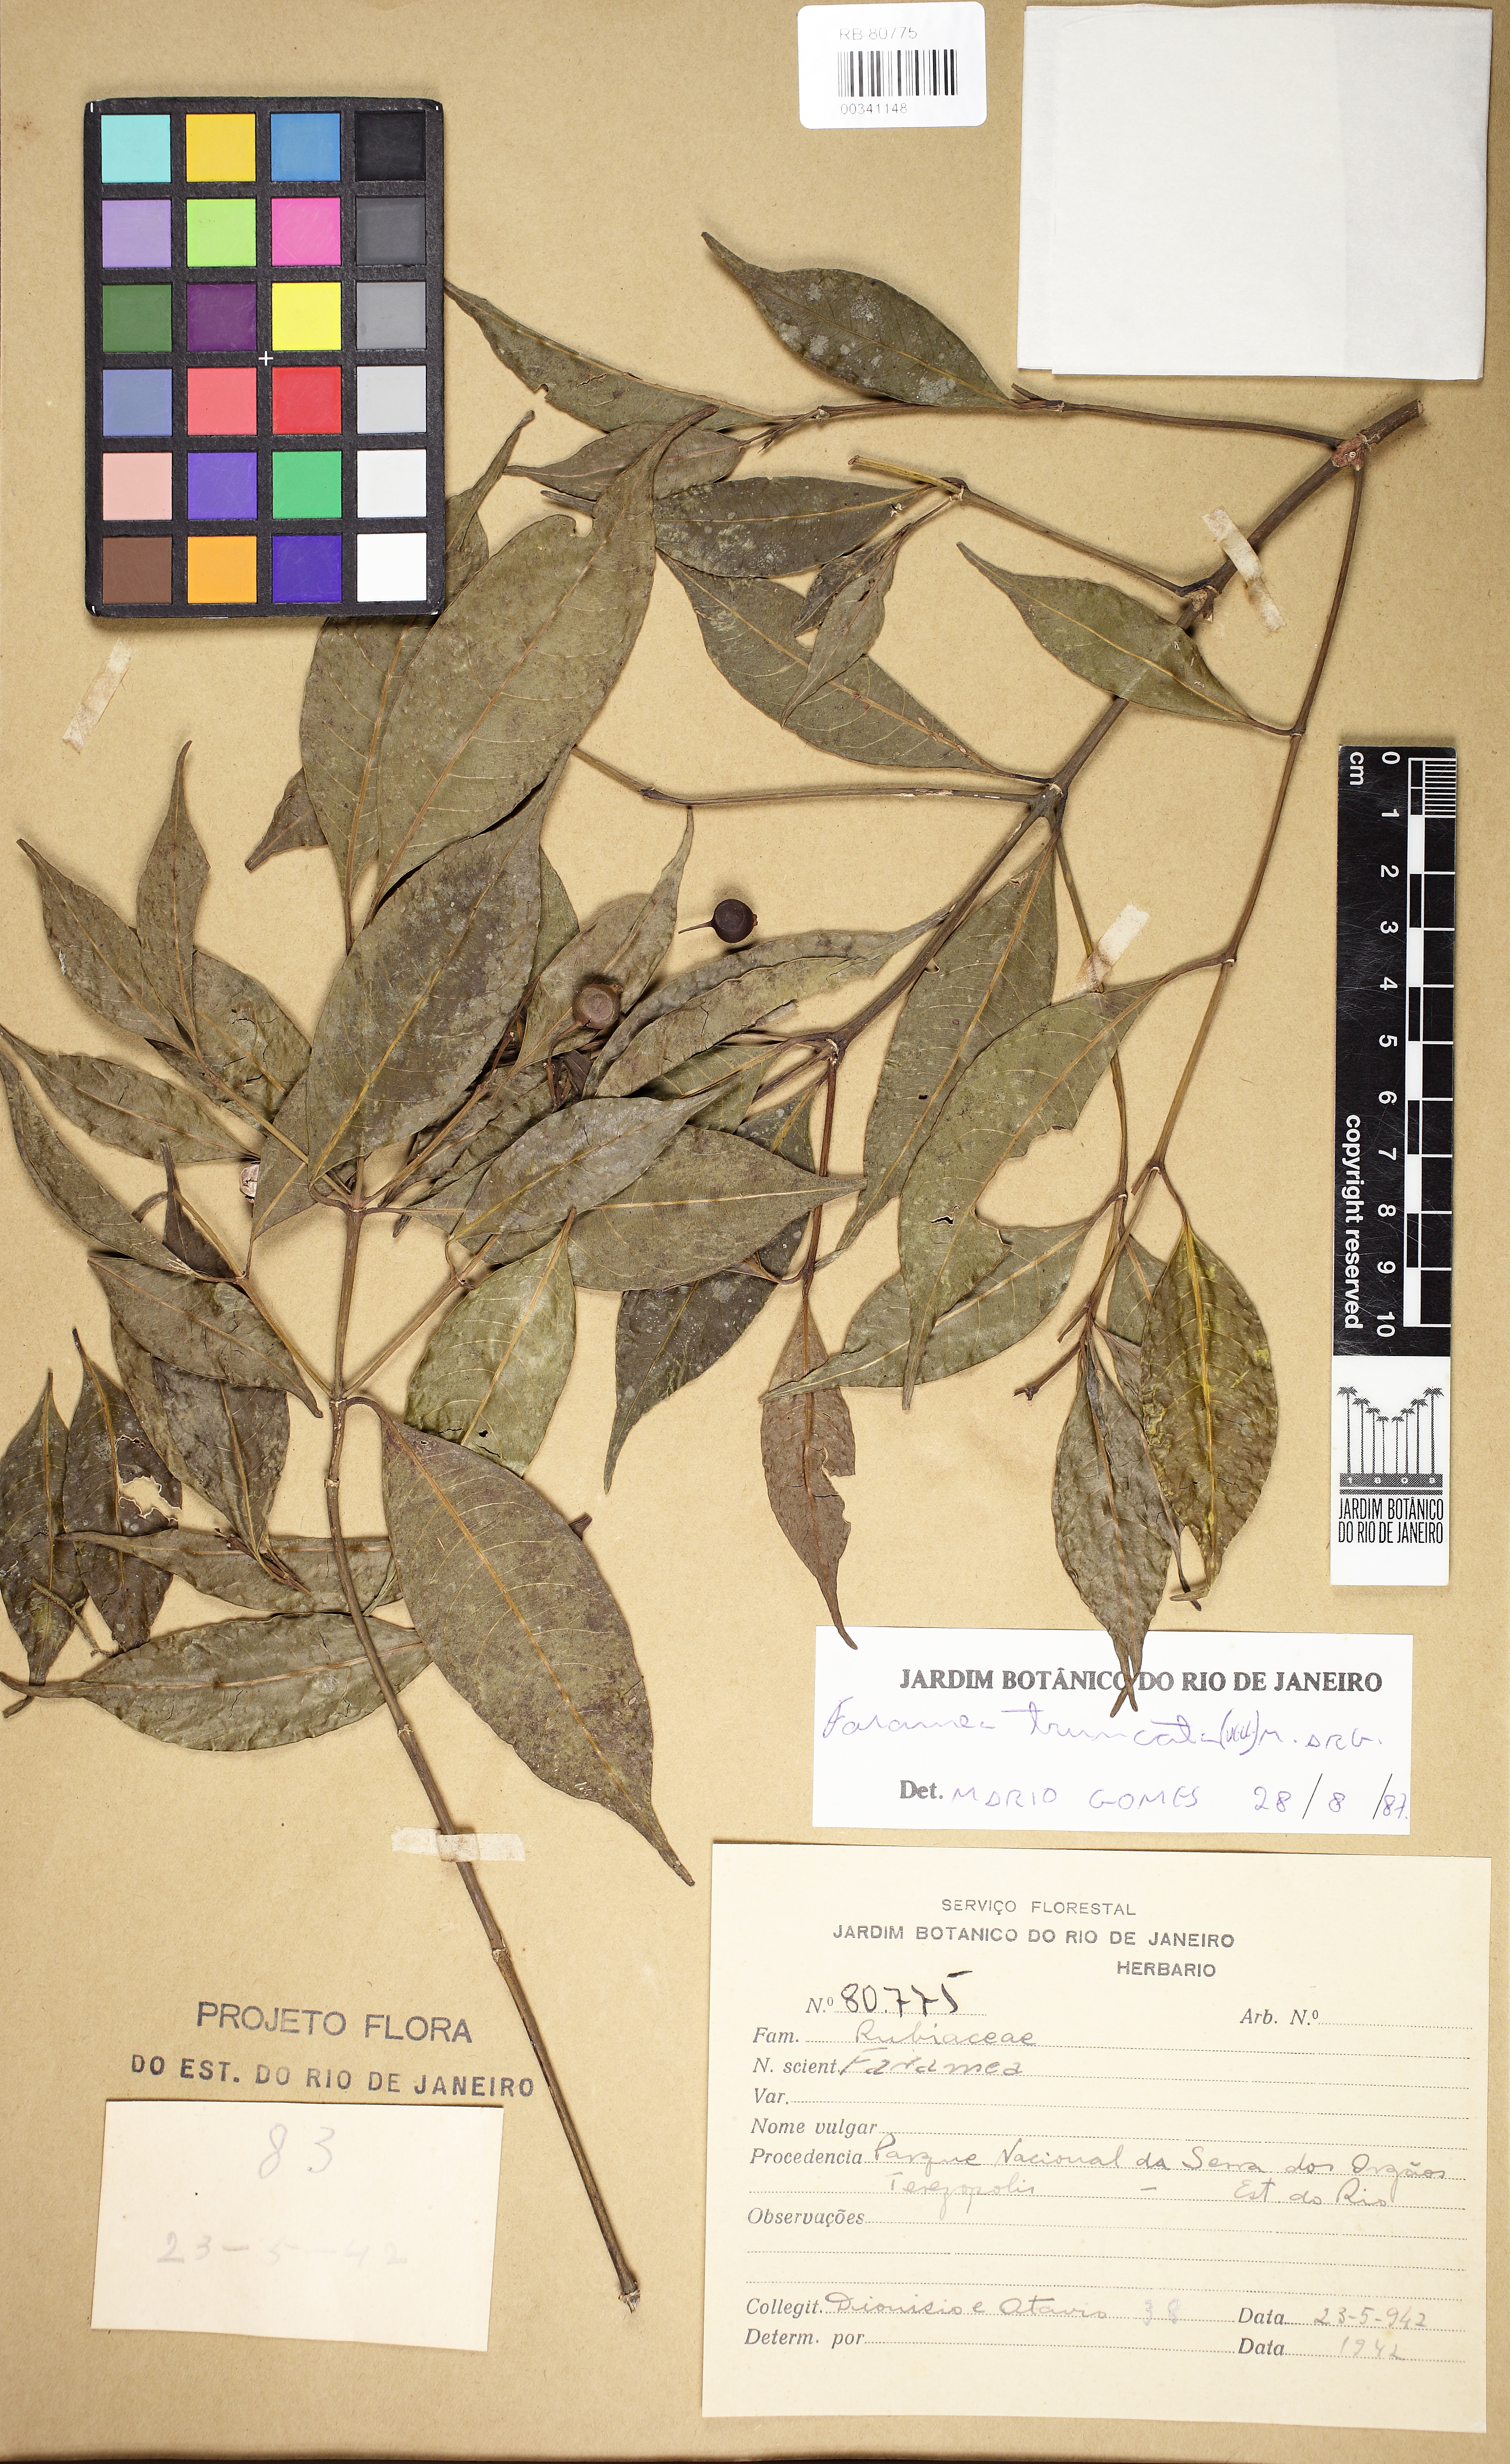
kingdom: Plantae
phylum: Tracheophyta
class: Magnoliopsida
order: Gentianales
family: Rubiaceae
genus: Faramea
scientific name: Faramea caudata
